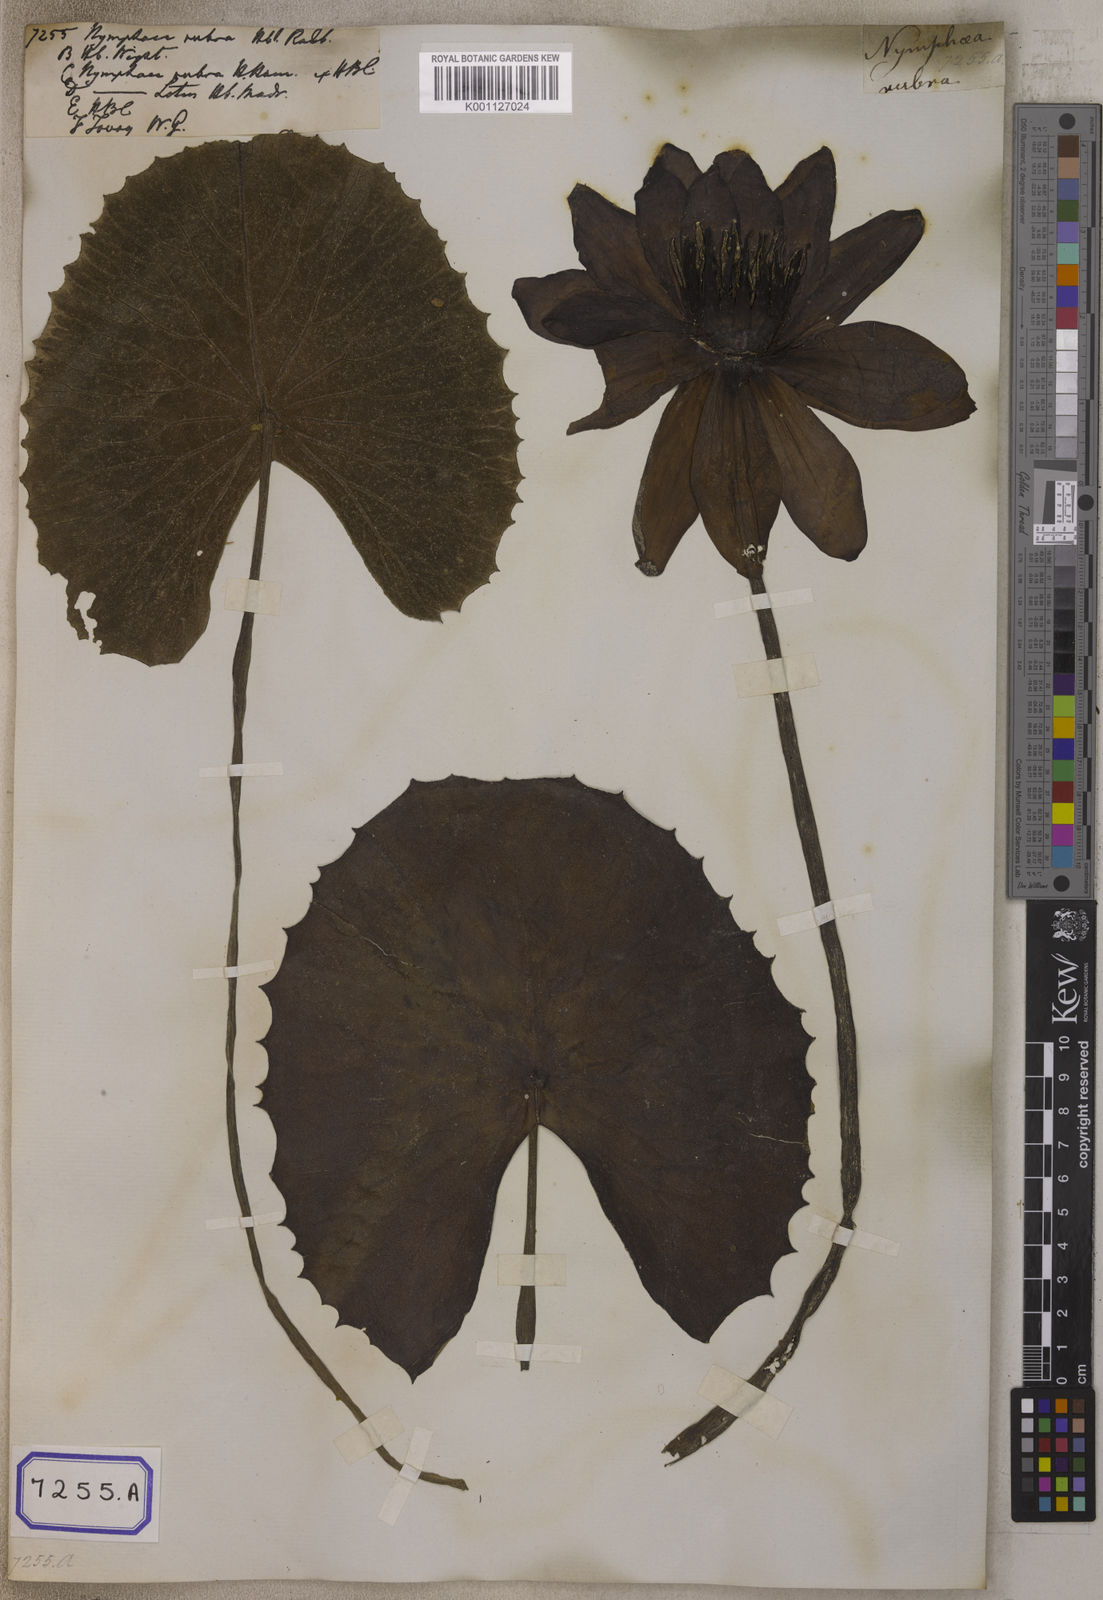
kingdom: Plantae
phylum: Tracheophyta
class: Magnoliopsida
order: Nymphaeales
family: Nymphaeaceae
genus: Nymphaea
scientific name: Nymphaea
